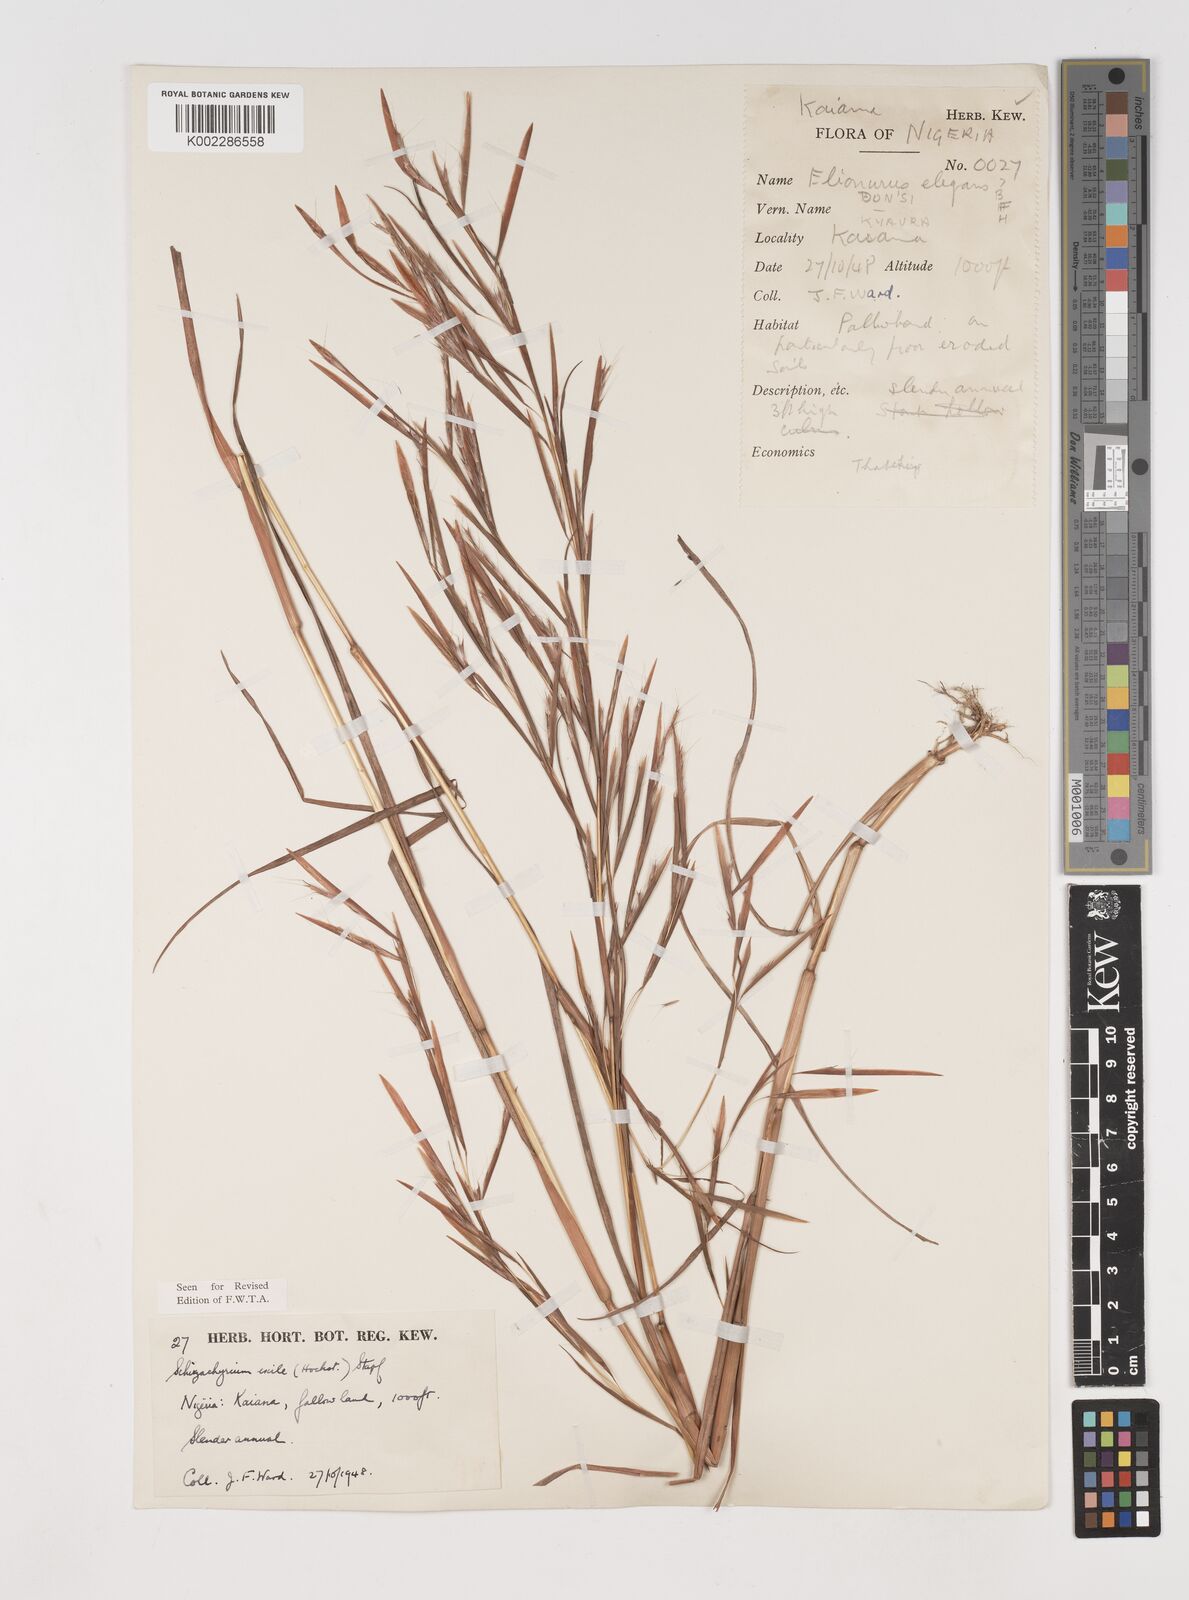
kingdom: Plantae
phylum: Tracheophyta
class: Liliopsida
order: Poales
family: Poaceae
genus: Schizachyrium
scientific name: Schizachyrium exile
